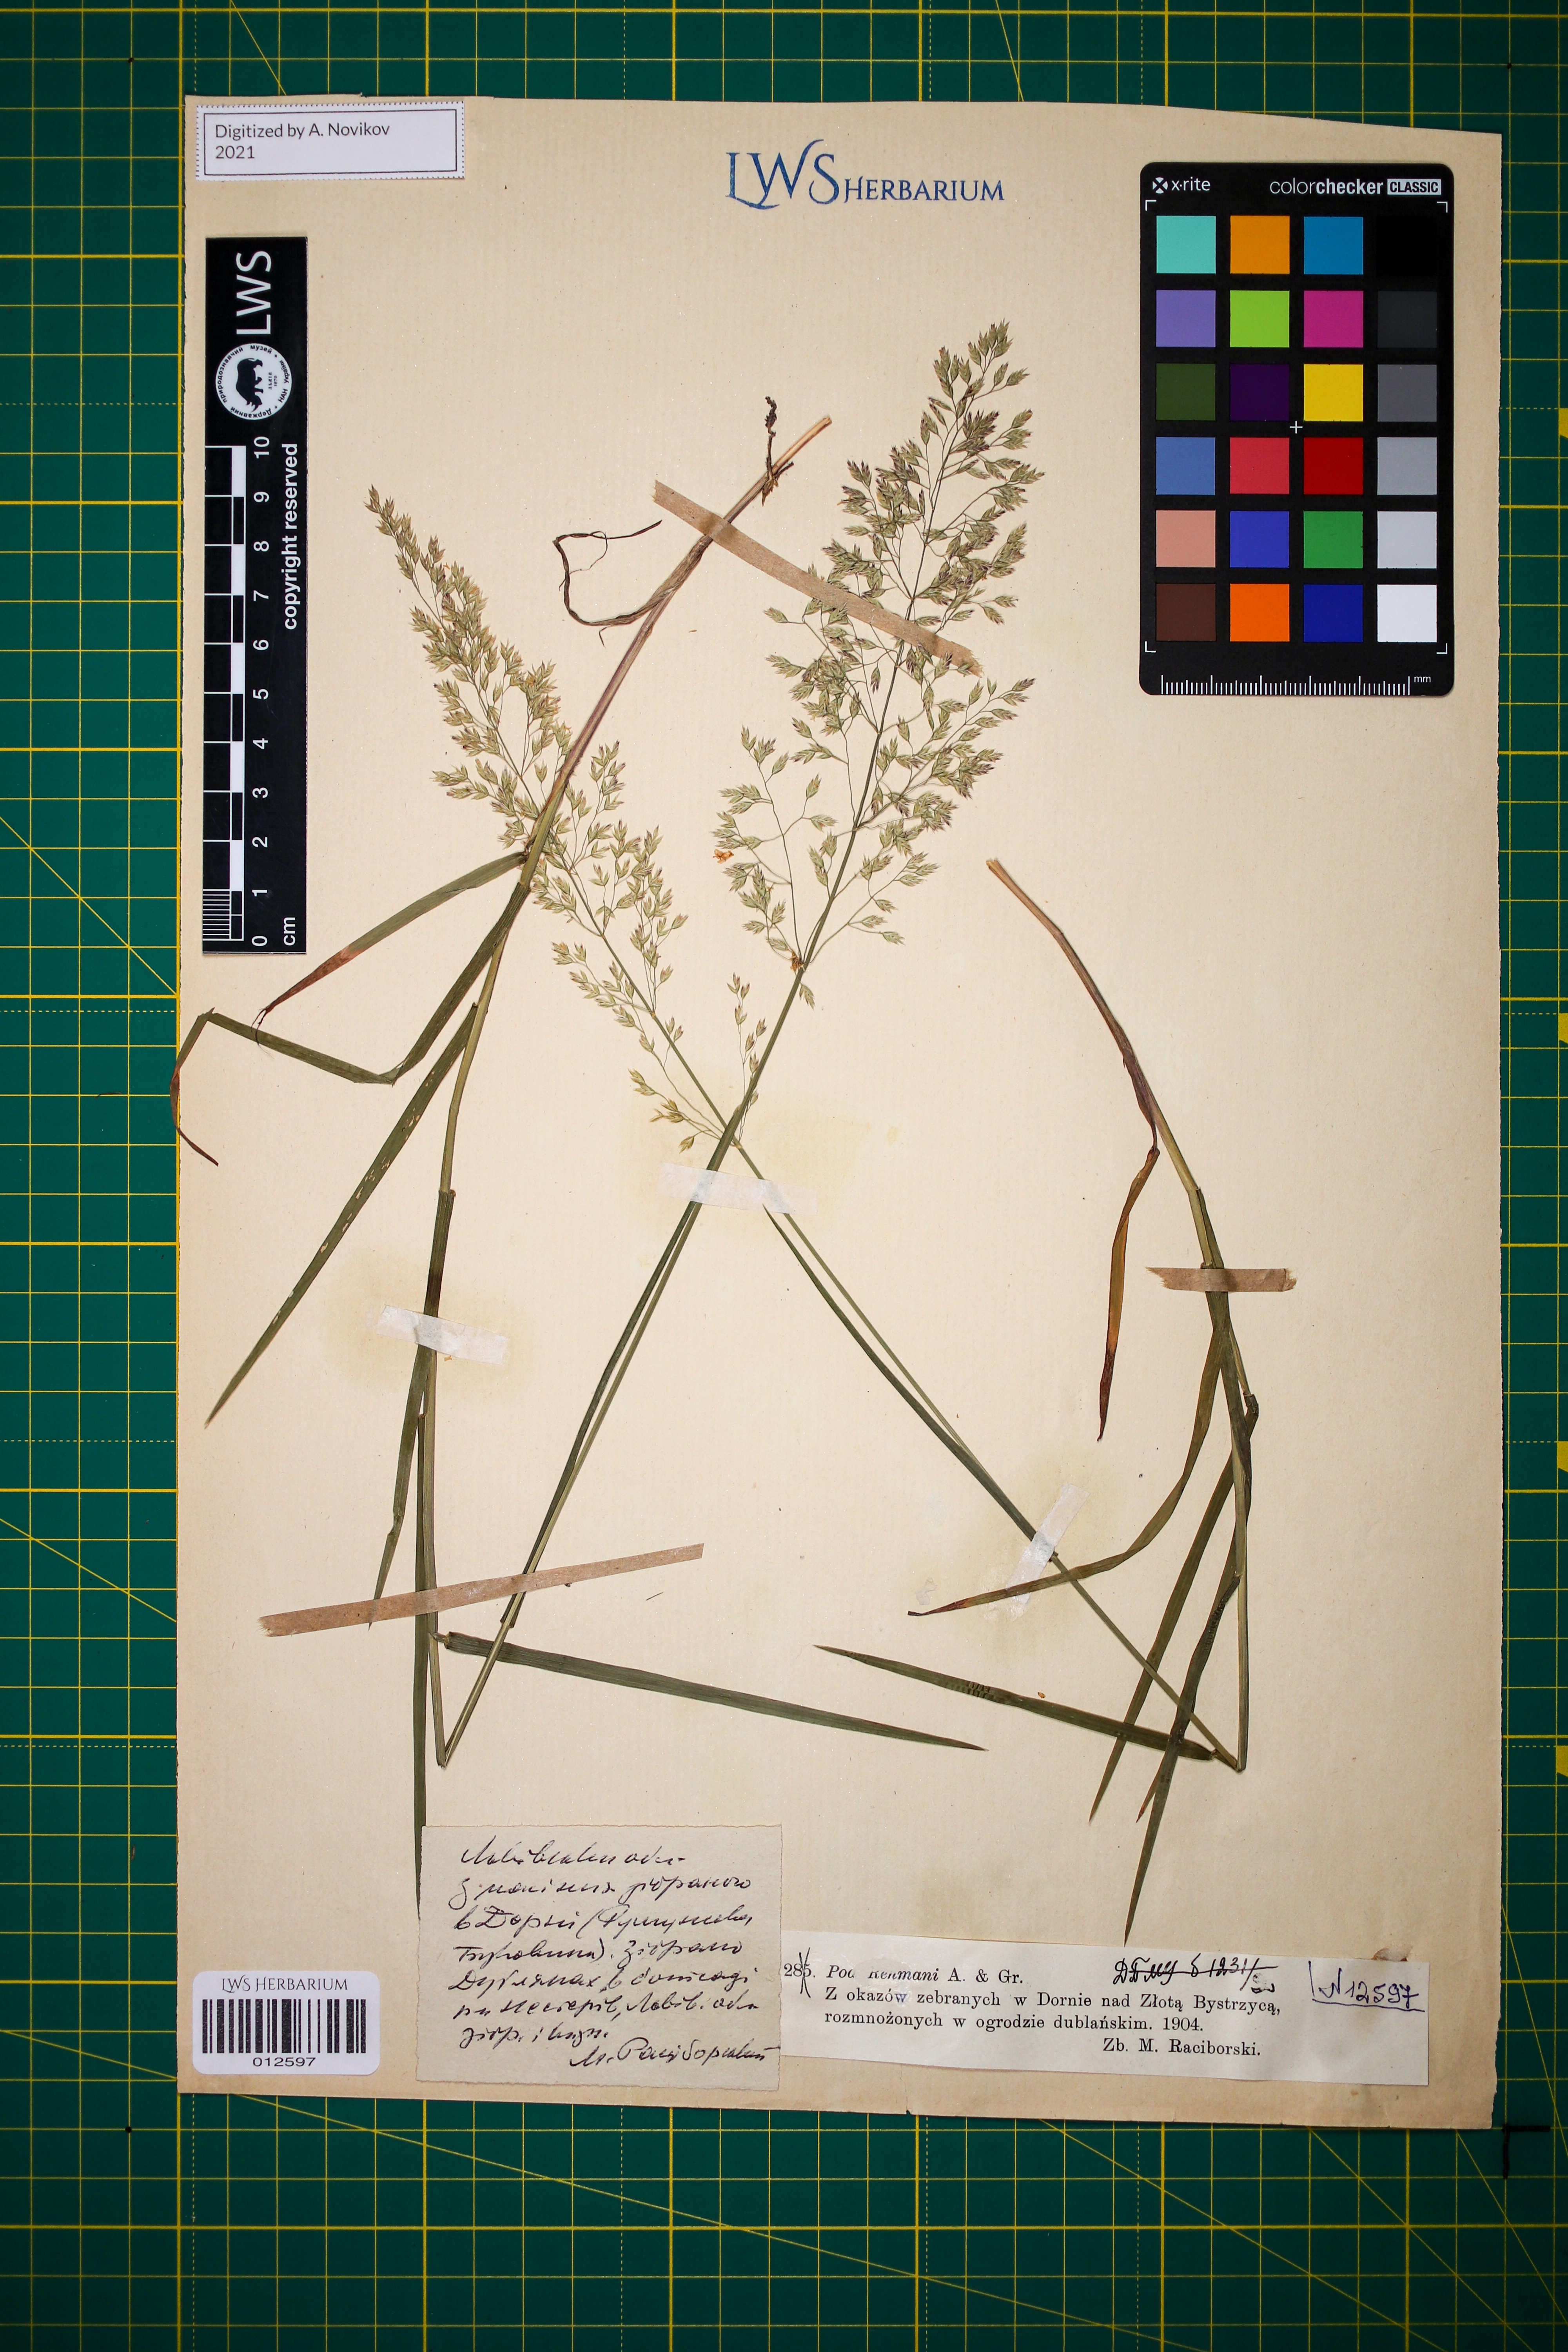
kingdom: Plantae
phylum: Tracheophyta
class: Liliopsida
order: Poales
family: Poaceae
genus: Poa
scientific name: Poa rehmannii
